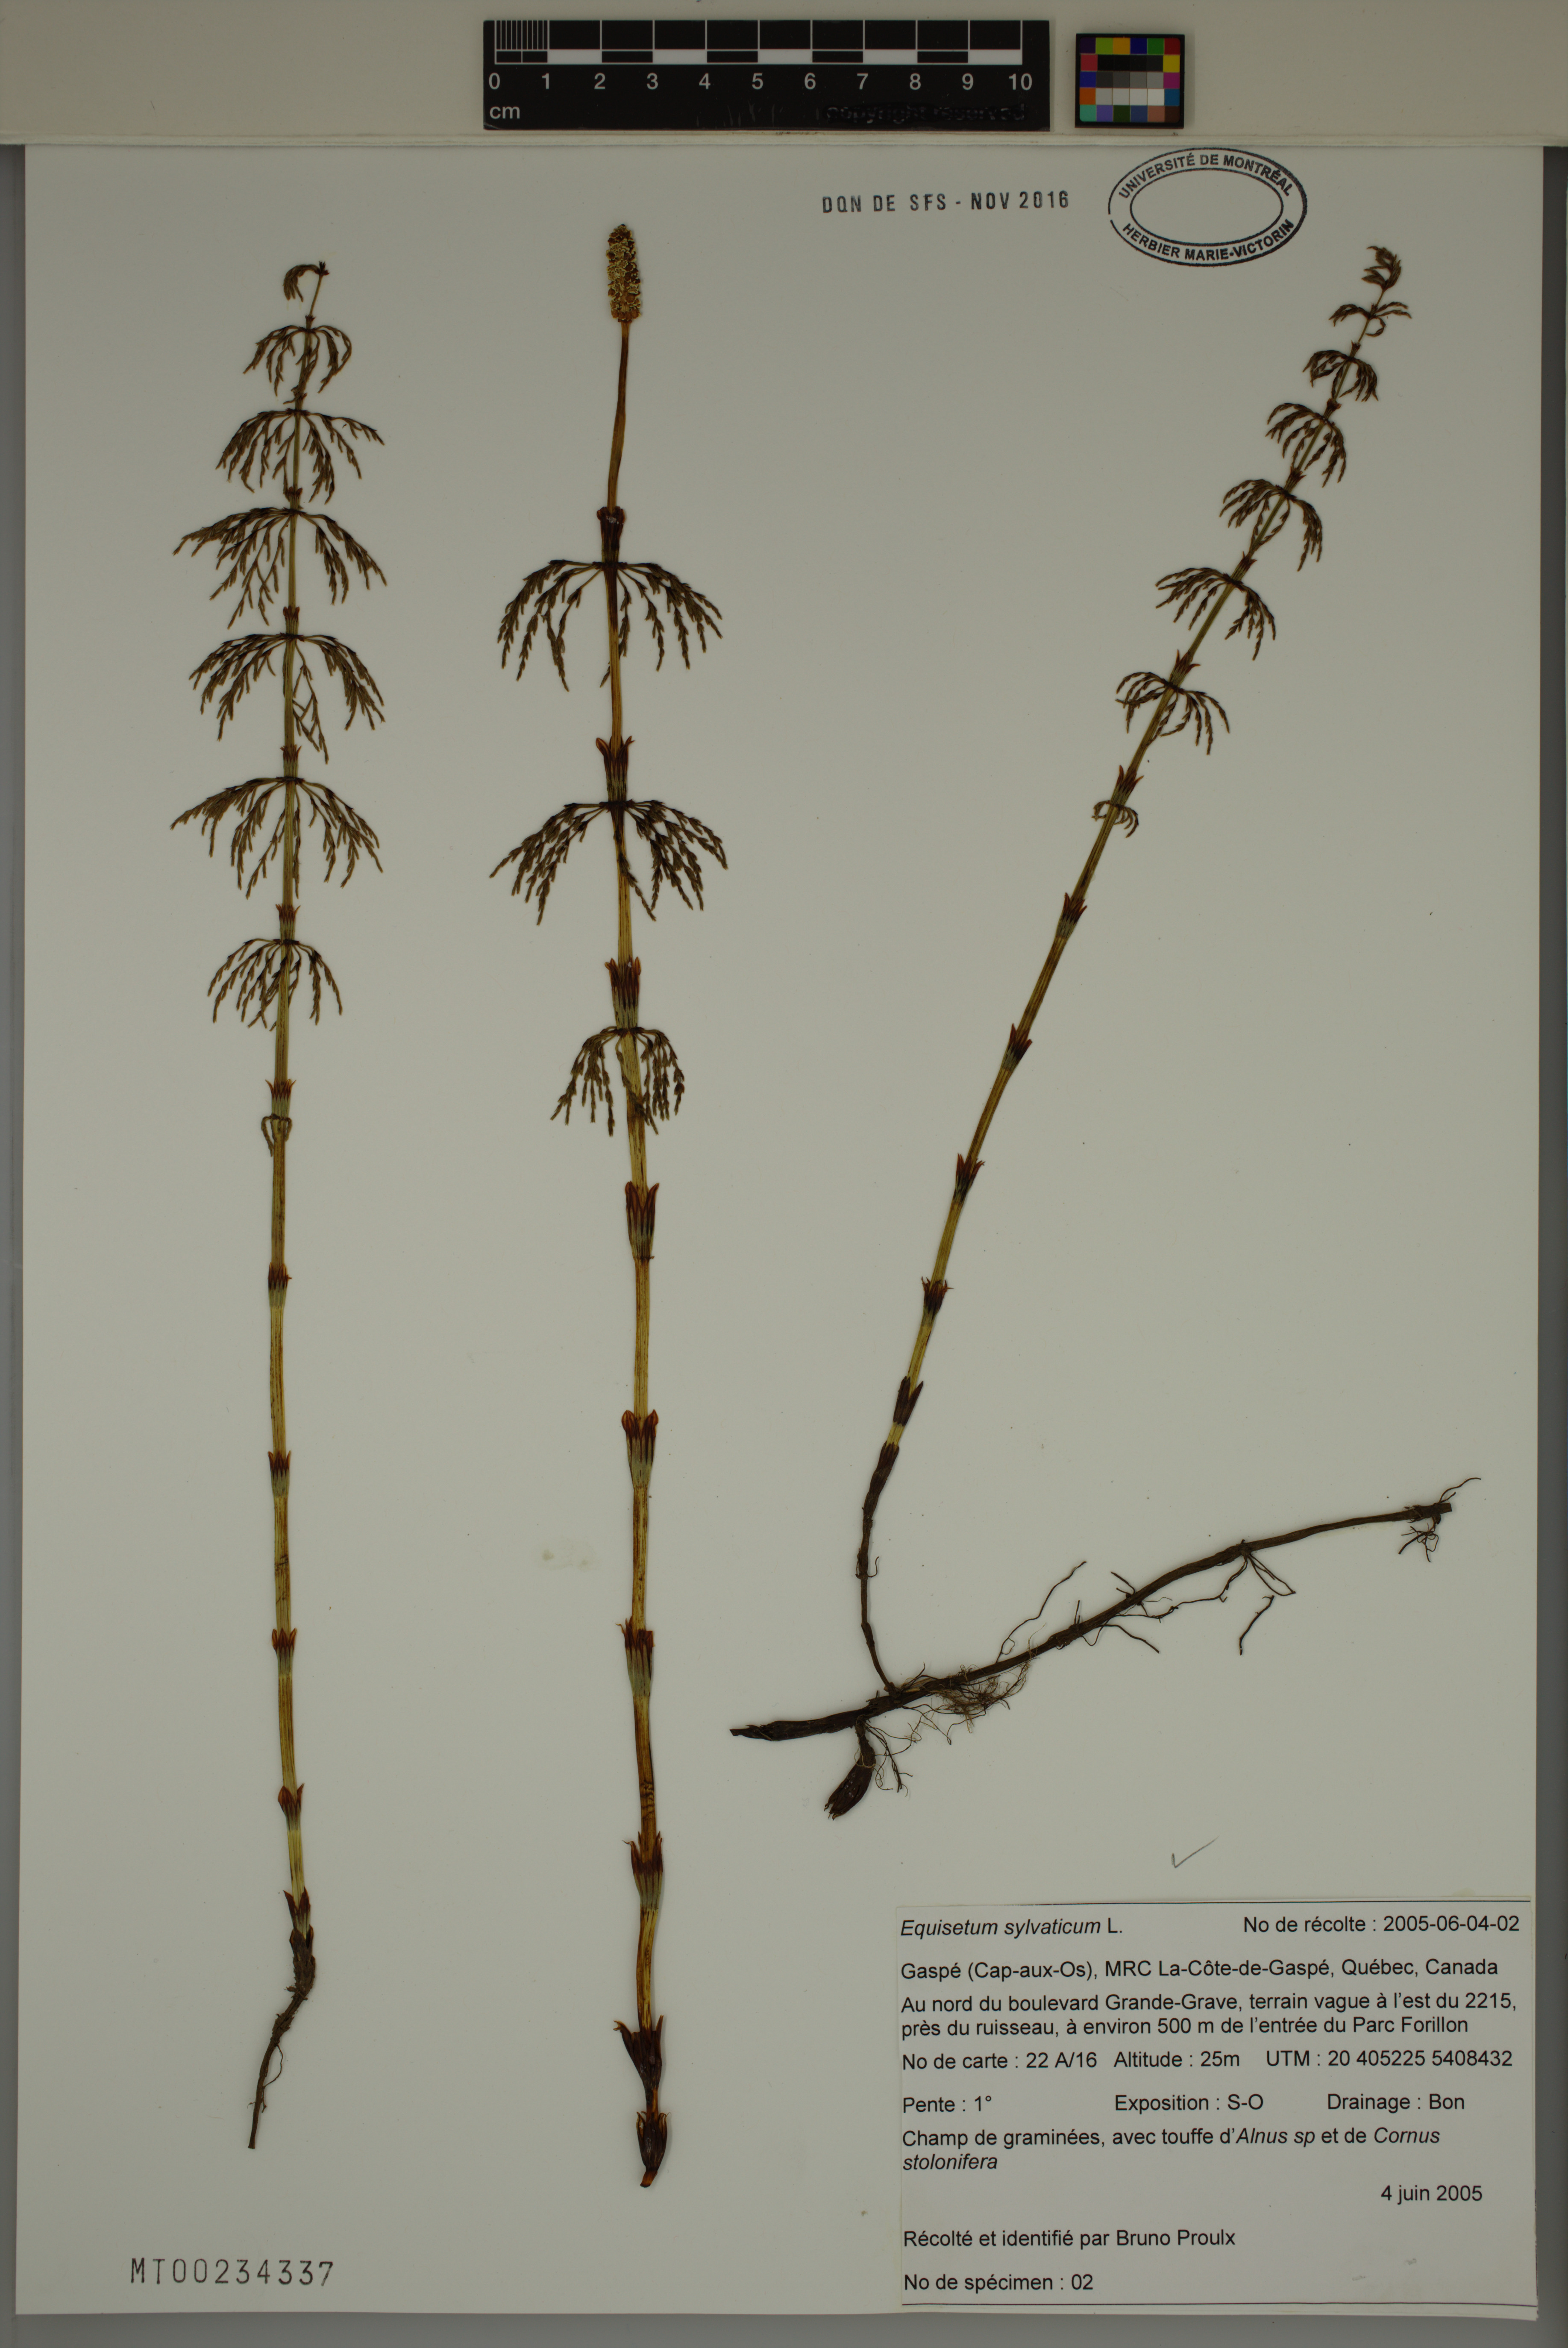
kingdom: Plantae
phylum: Tracheophyta
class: Polypodiopsida
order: Equisetales
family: Equisetaceae
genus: Equisetum
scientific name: Equisetum sylvaticum
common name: Wood horsetail
